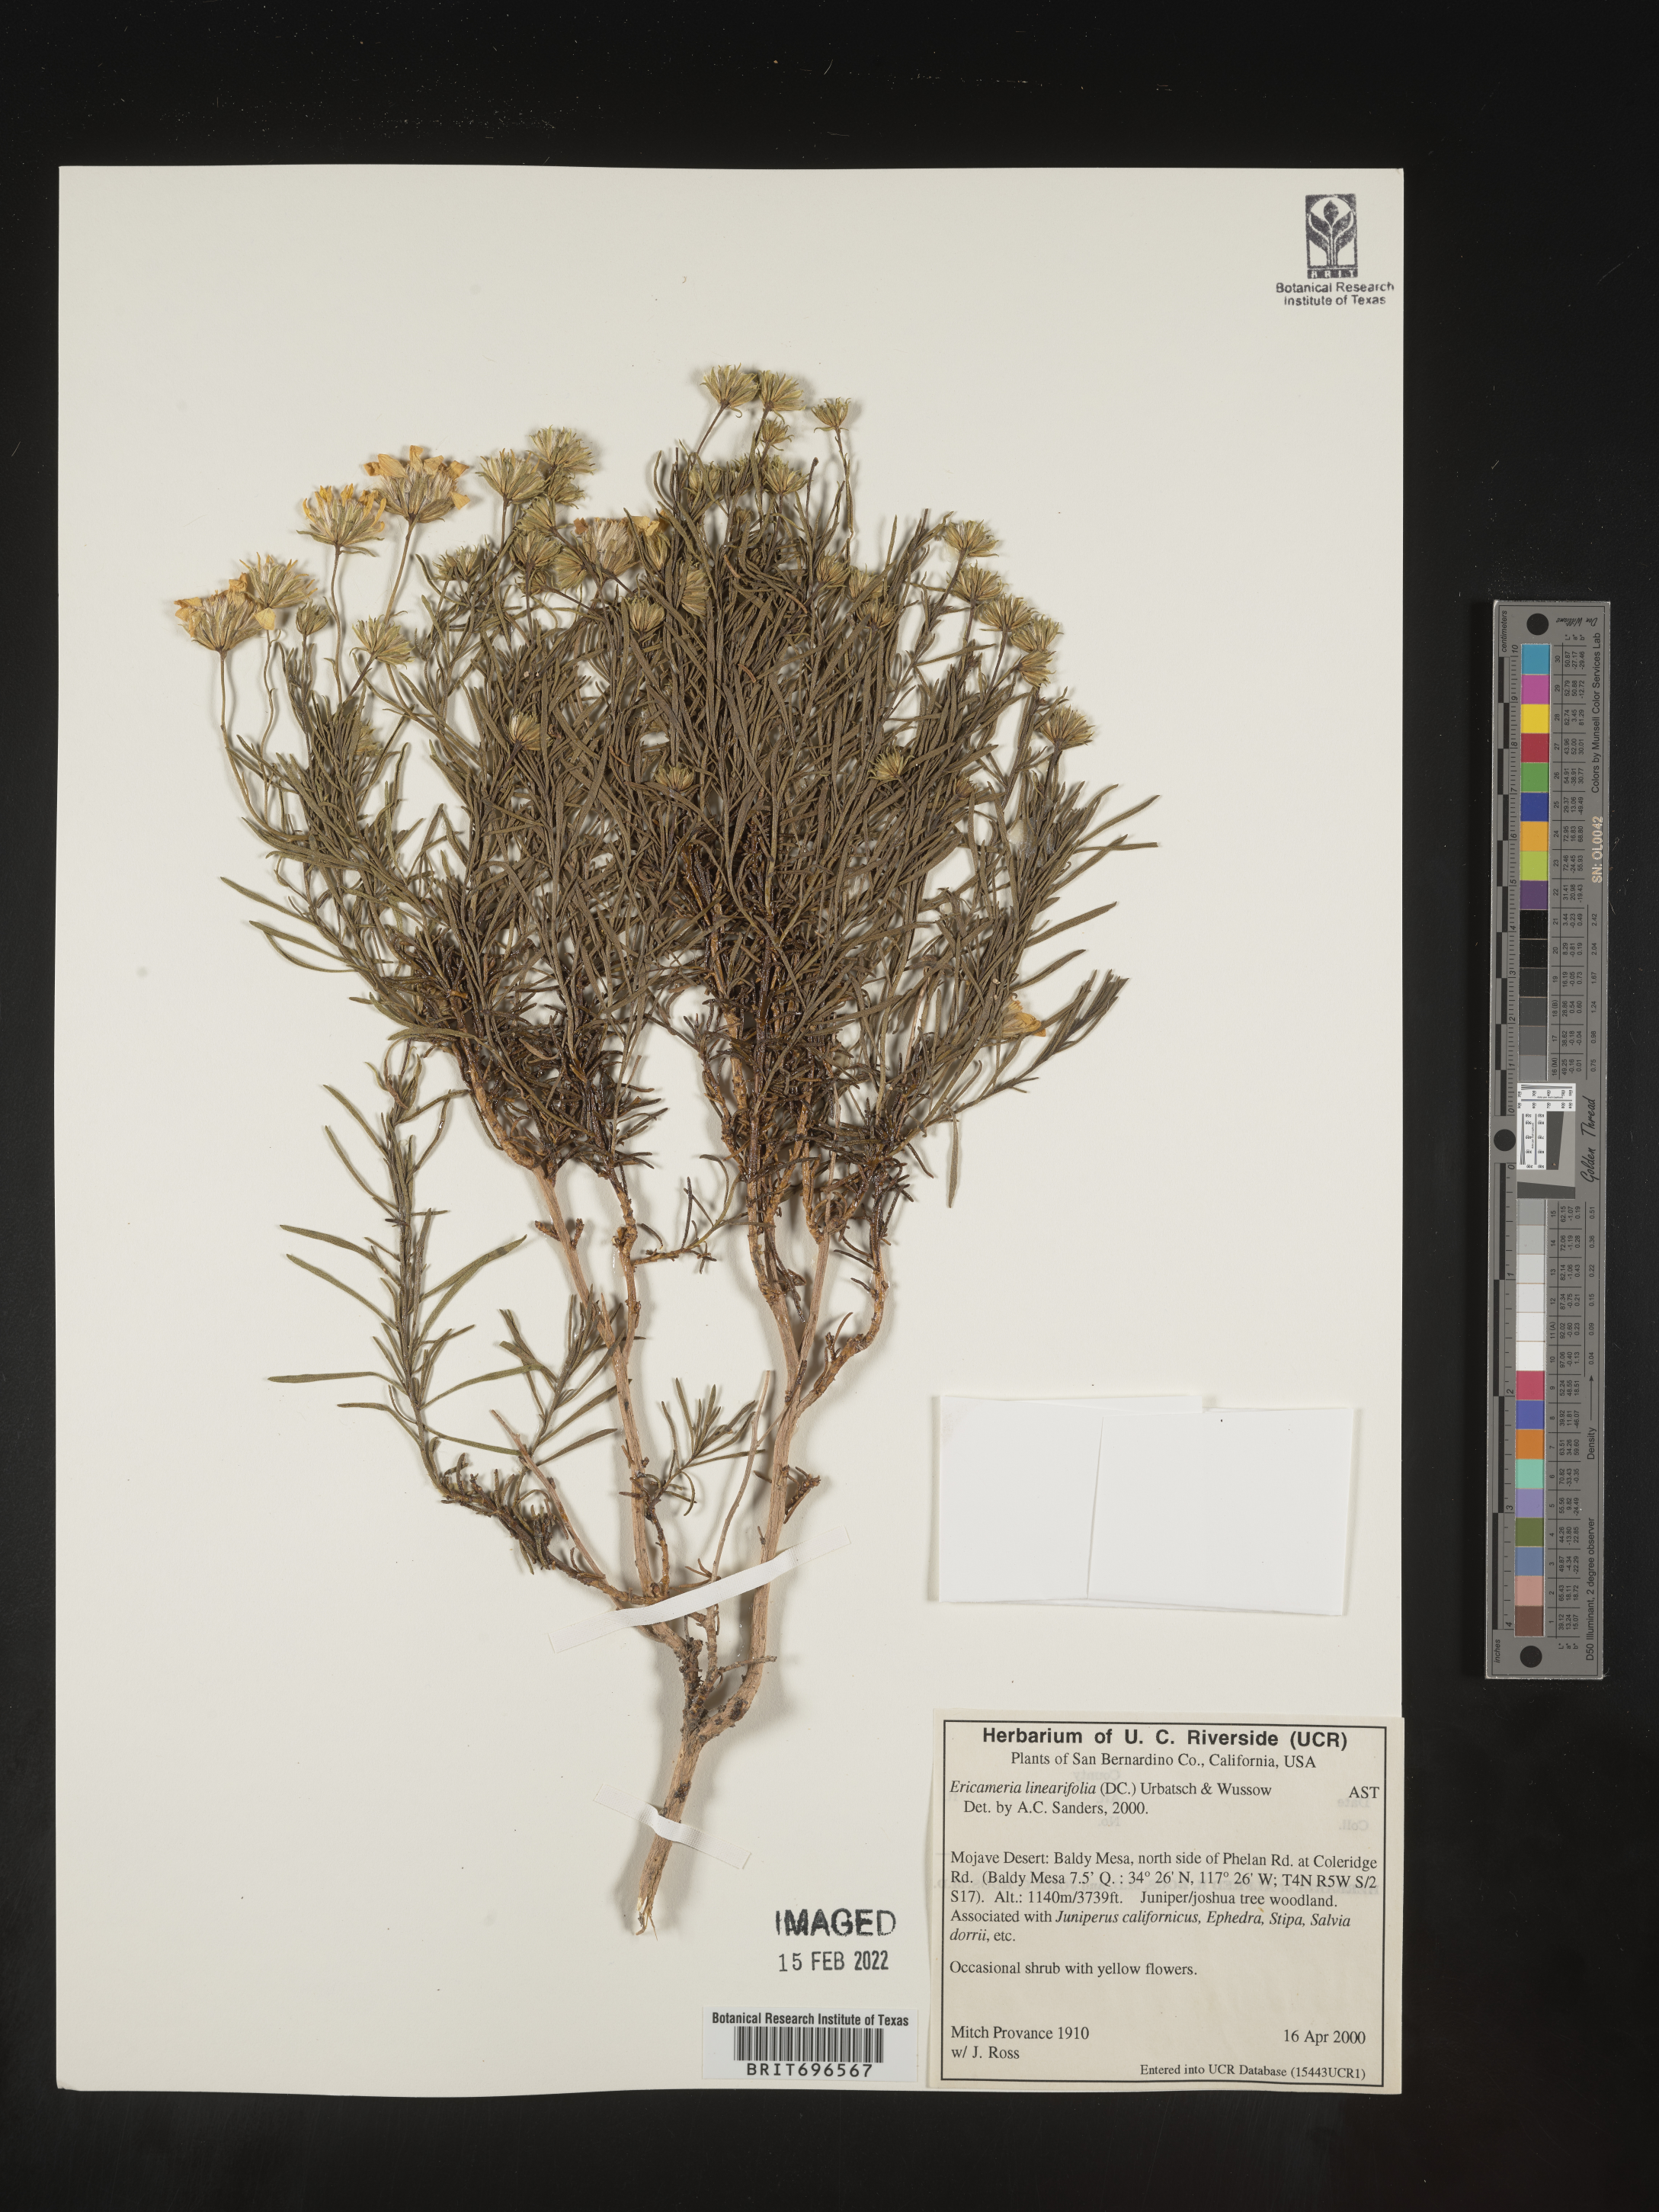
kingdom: Plantae
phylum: Tracheophyta
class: Magnoliopsida
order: Asterales
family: Asteraceae
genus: Ericameria
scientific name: Ericameria linearifolia
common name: Interior goldenbush
